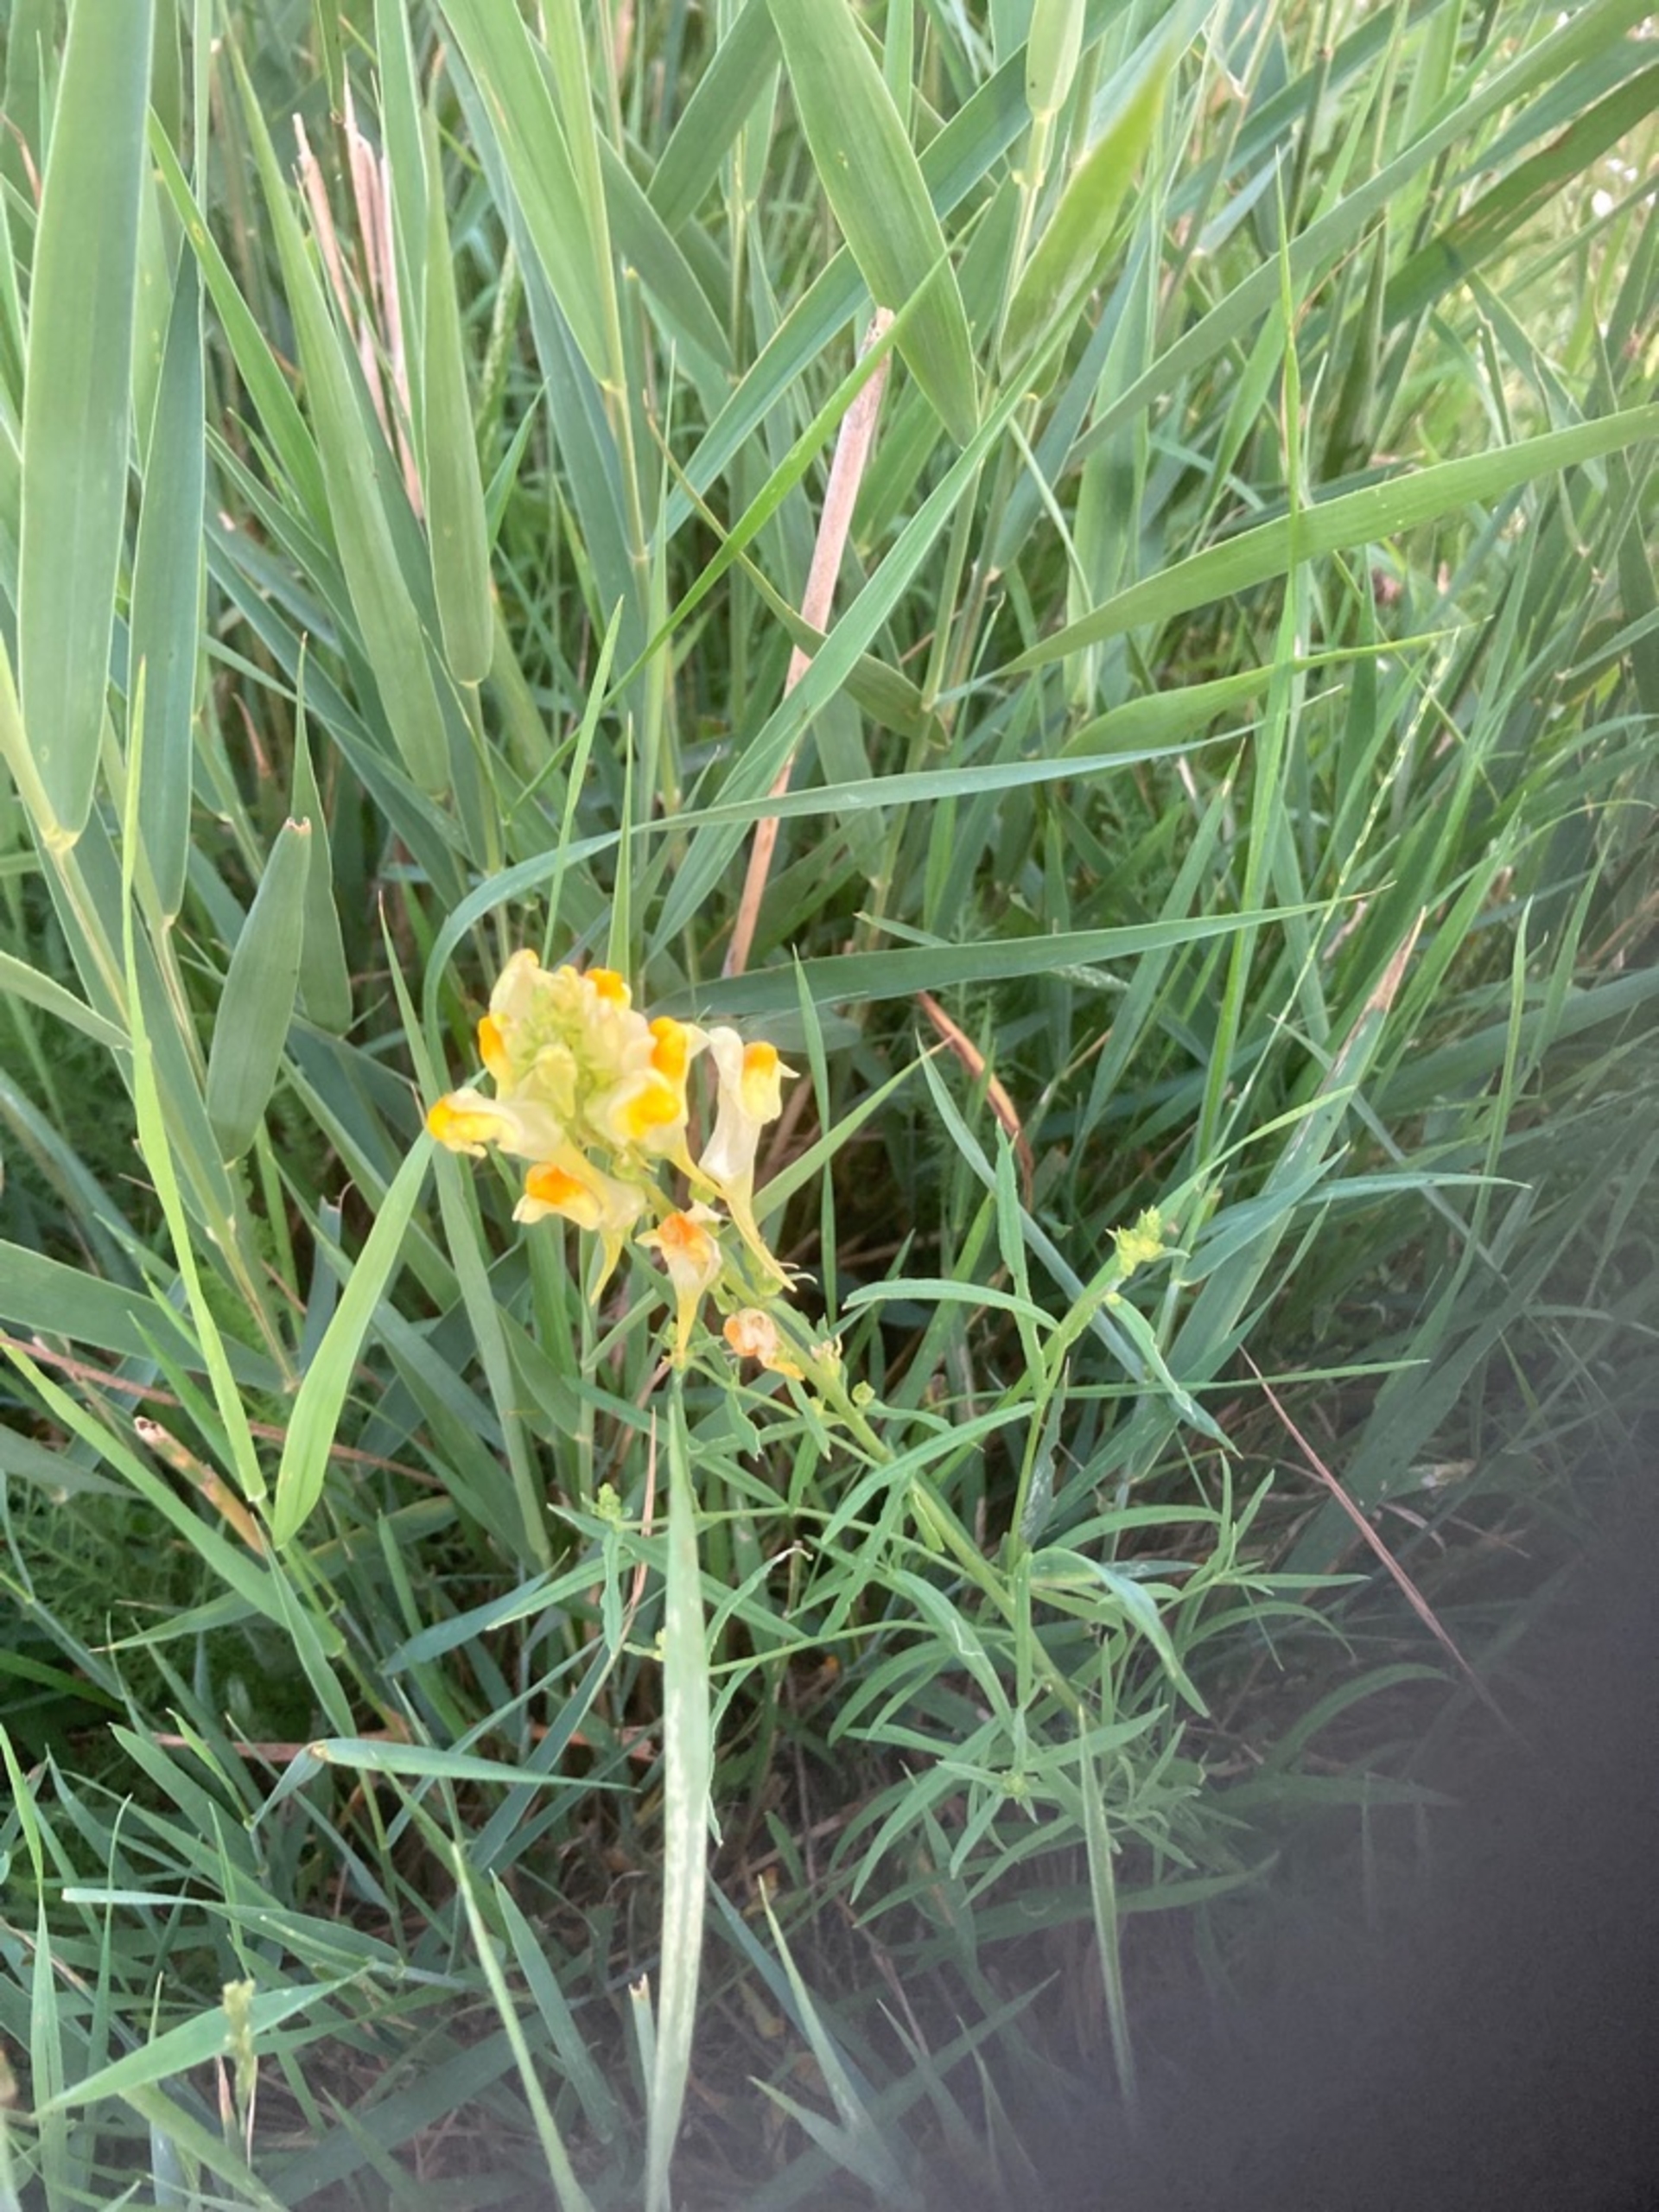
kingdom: Plantae
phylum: Tracheophyta
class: Magnoliopsida
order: Lamiales
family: Plantaginaceae
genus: Linaria
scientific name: Linaria vulgaris
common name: Almindelig torskemund
